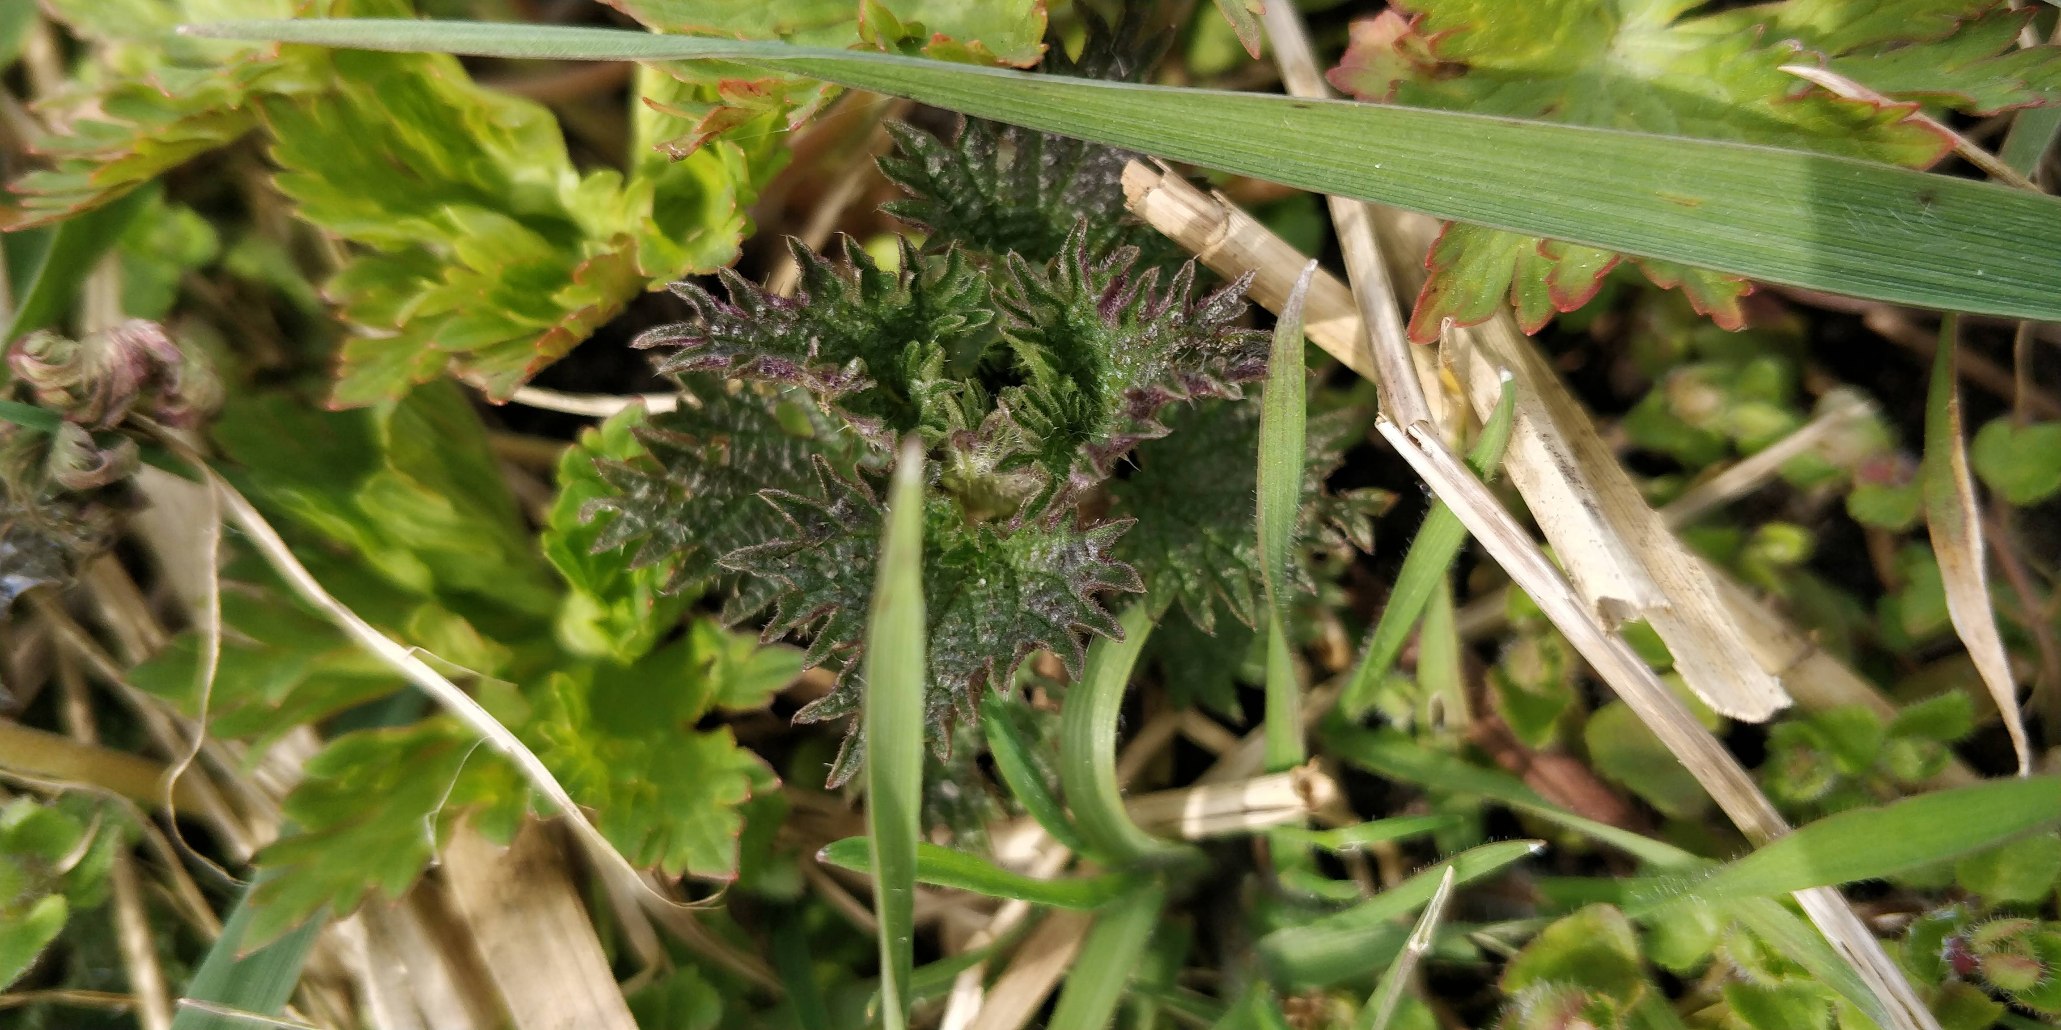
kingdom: Plantae
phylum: Tracheophyta
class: Magnoliopsida
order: Rosales
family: Urticaceae
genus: Urtica
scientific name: Urtica dioica
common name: Stor nælde
